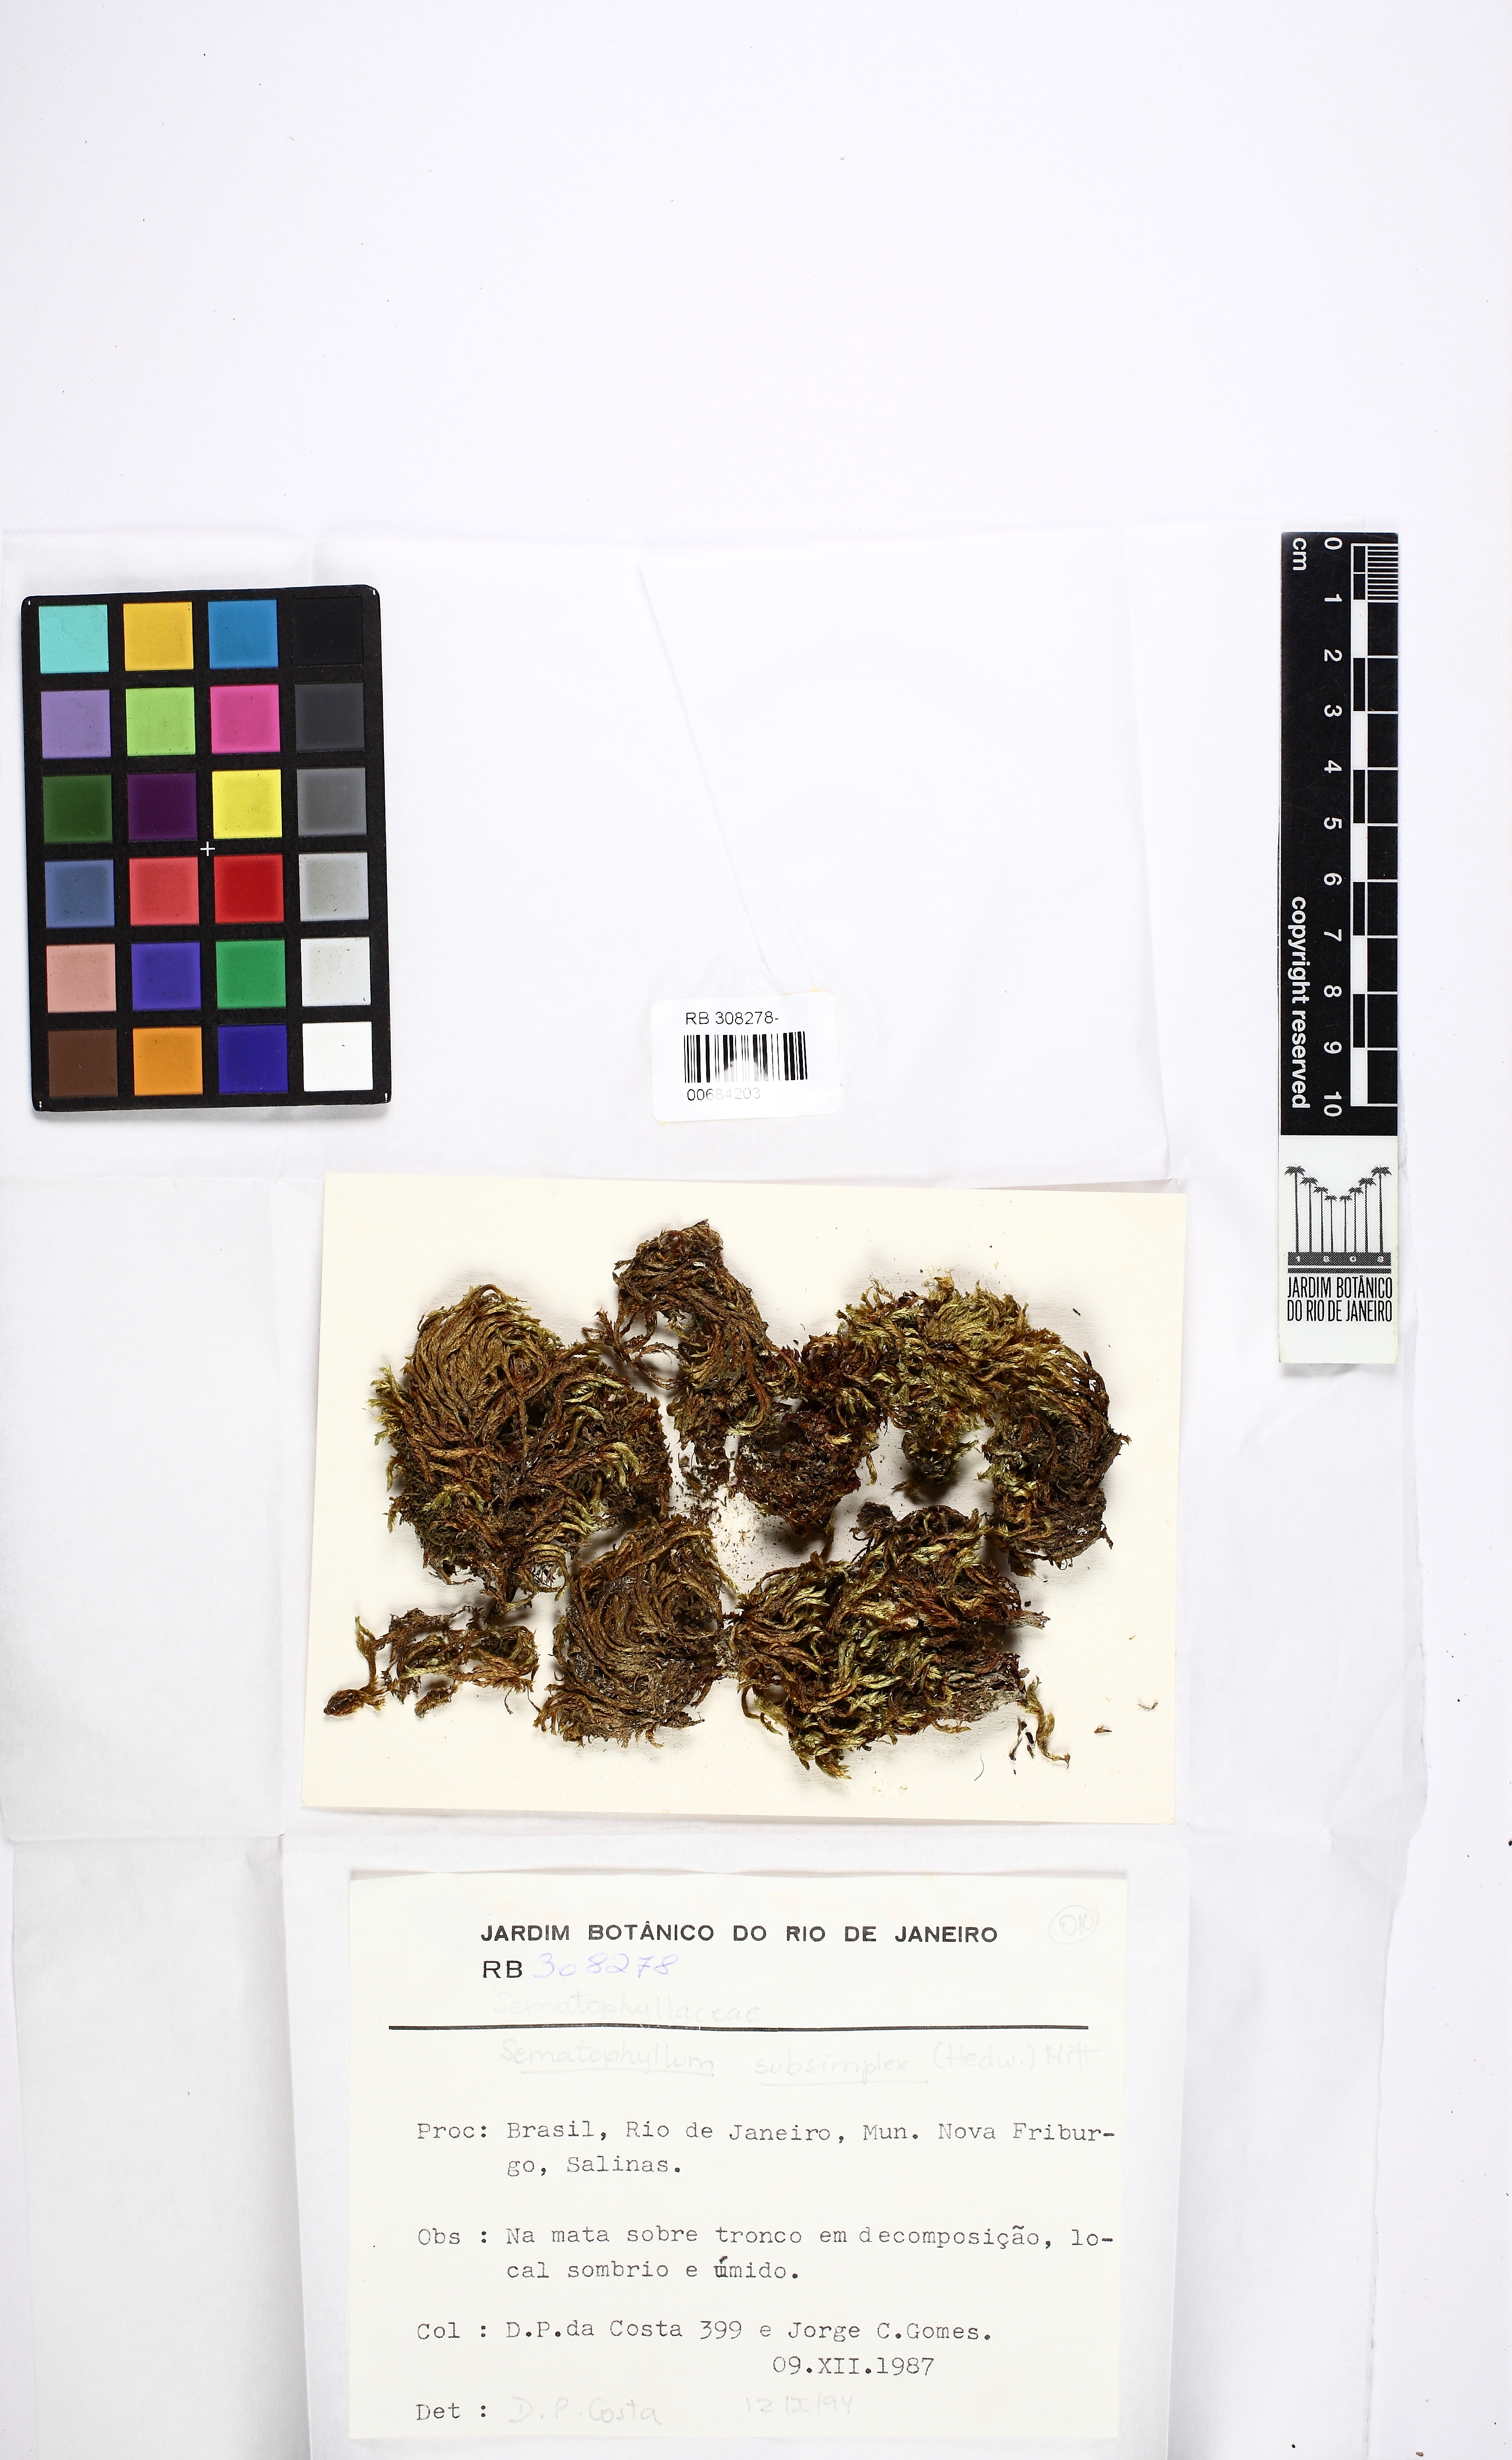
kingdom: Plantae
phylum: Bryophyta
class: Bryopsida
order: Hypnales
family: Sematophyllaceae
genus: Microcalpe
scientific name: Microcalpe subsimplex
